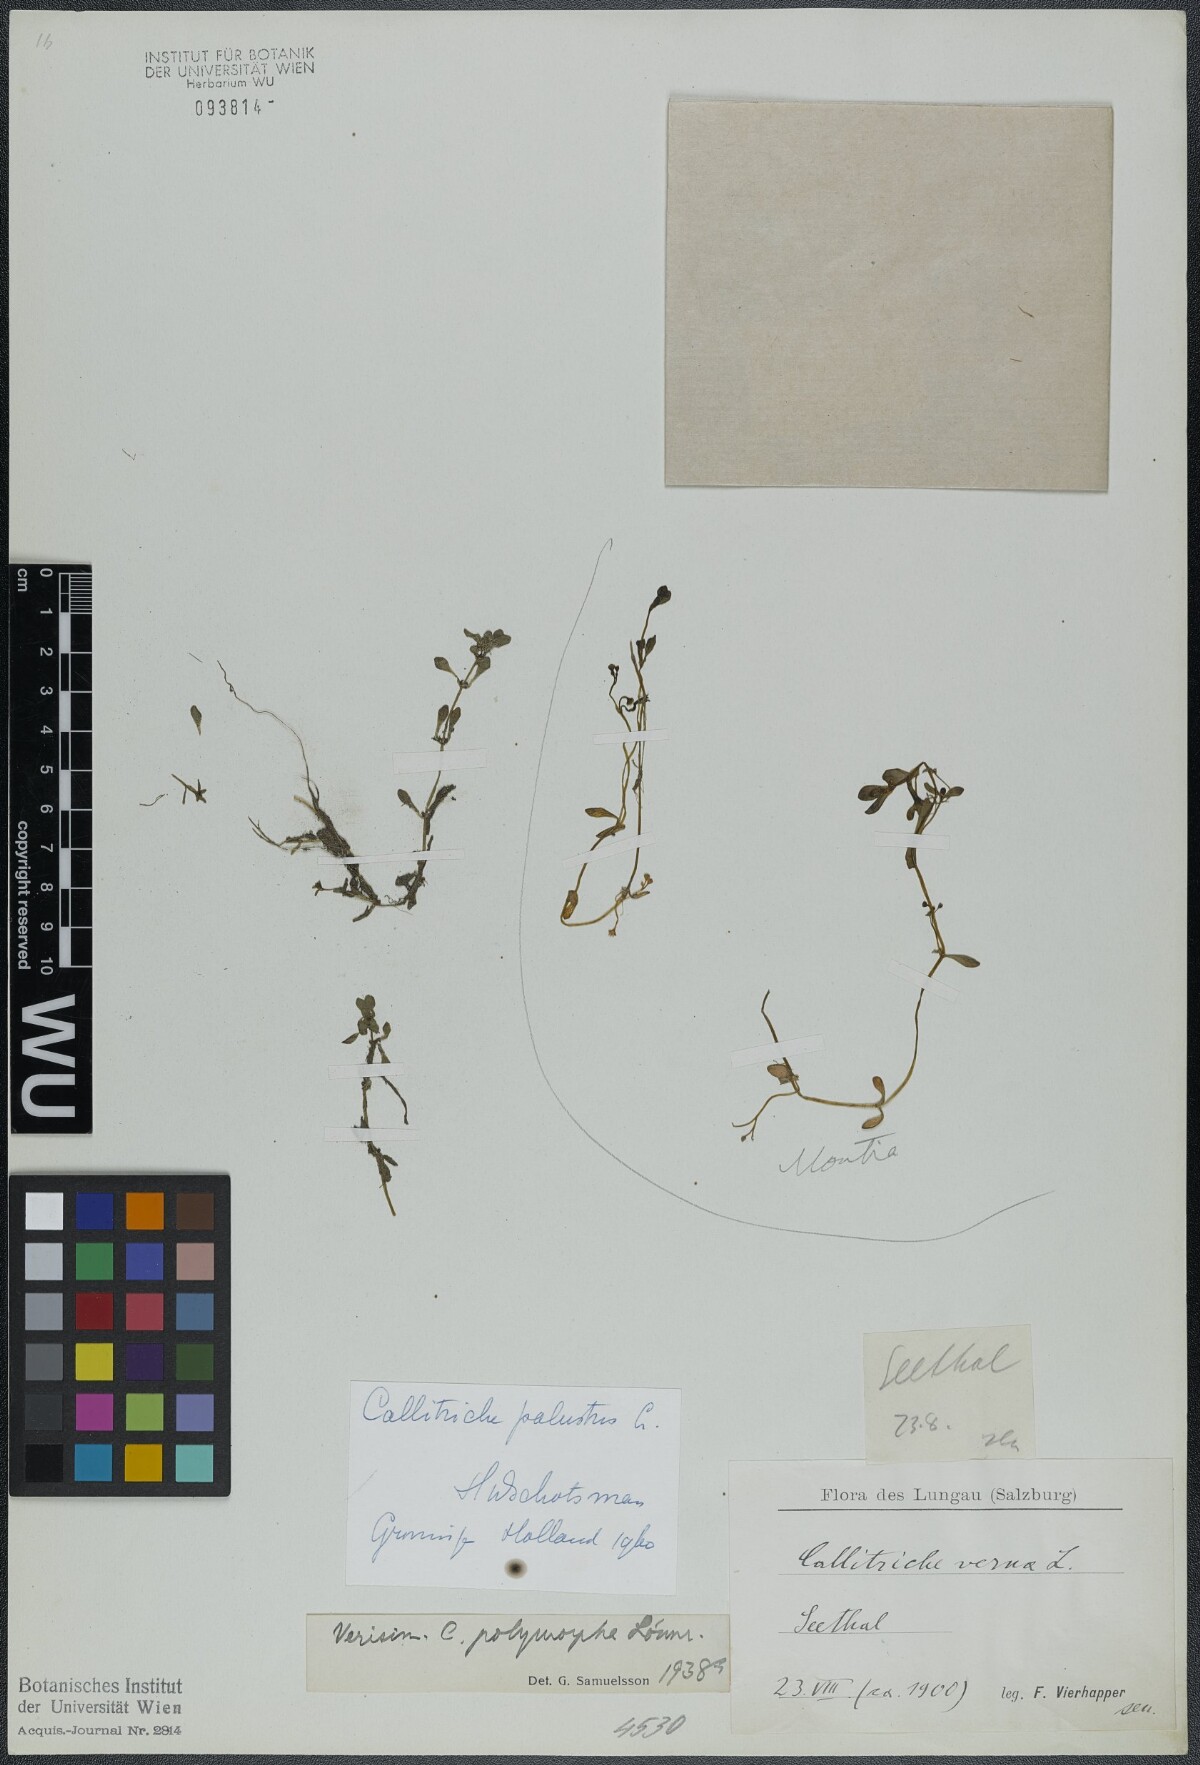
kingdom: Plantae
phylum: Tracheophyta
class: Magnoliopsida
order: Lamiales
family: Plantaginaceae
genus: Callitriche
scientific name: Callitriche palustris
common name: Spring water-starwort
